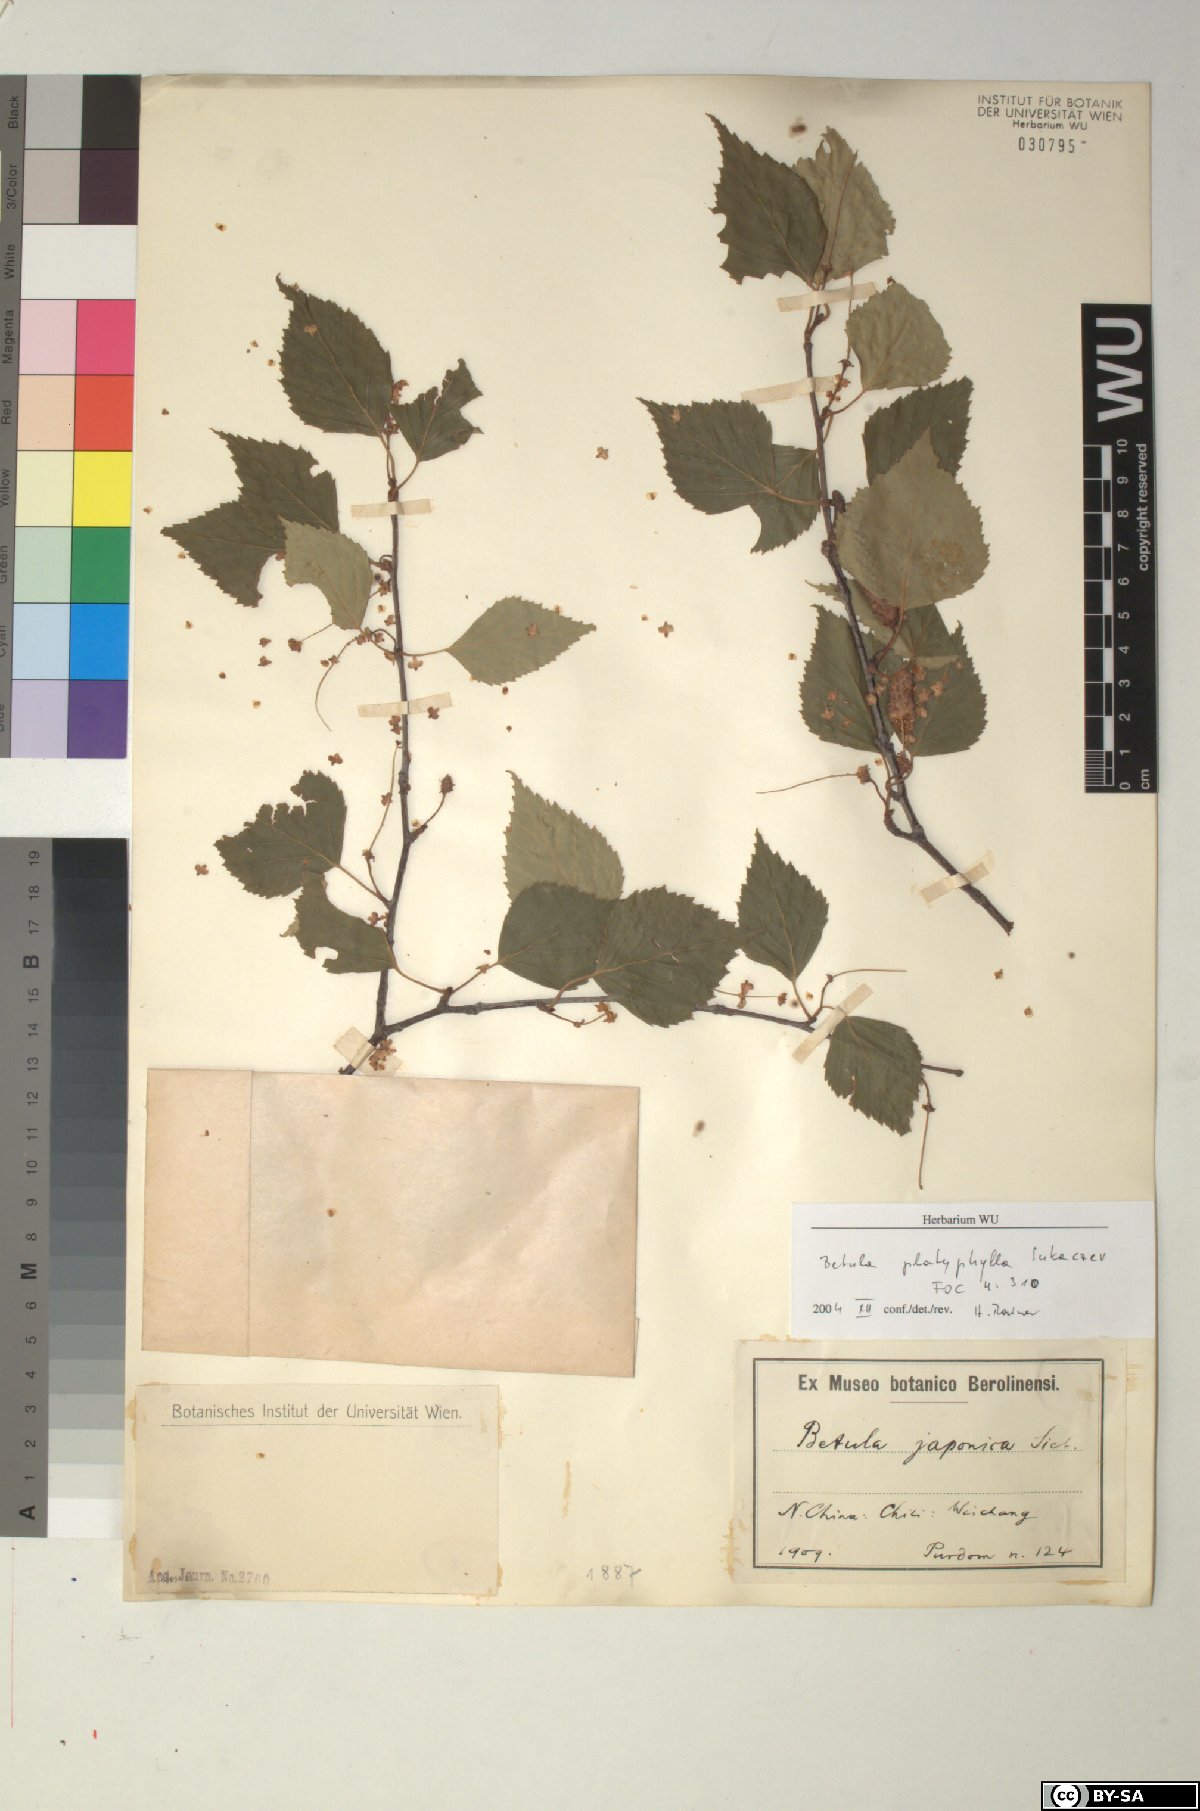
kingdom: Plantae
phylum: Tracheophyta
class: Magnoliopsida
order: Fagales
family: Betulaceae
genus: Betula
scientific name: Betula pendula
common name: Silver birch
